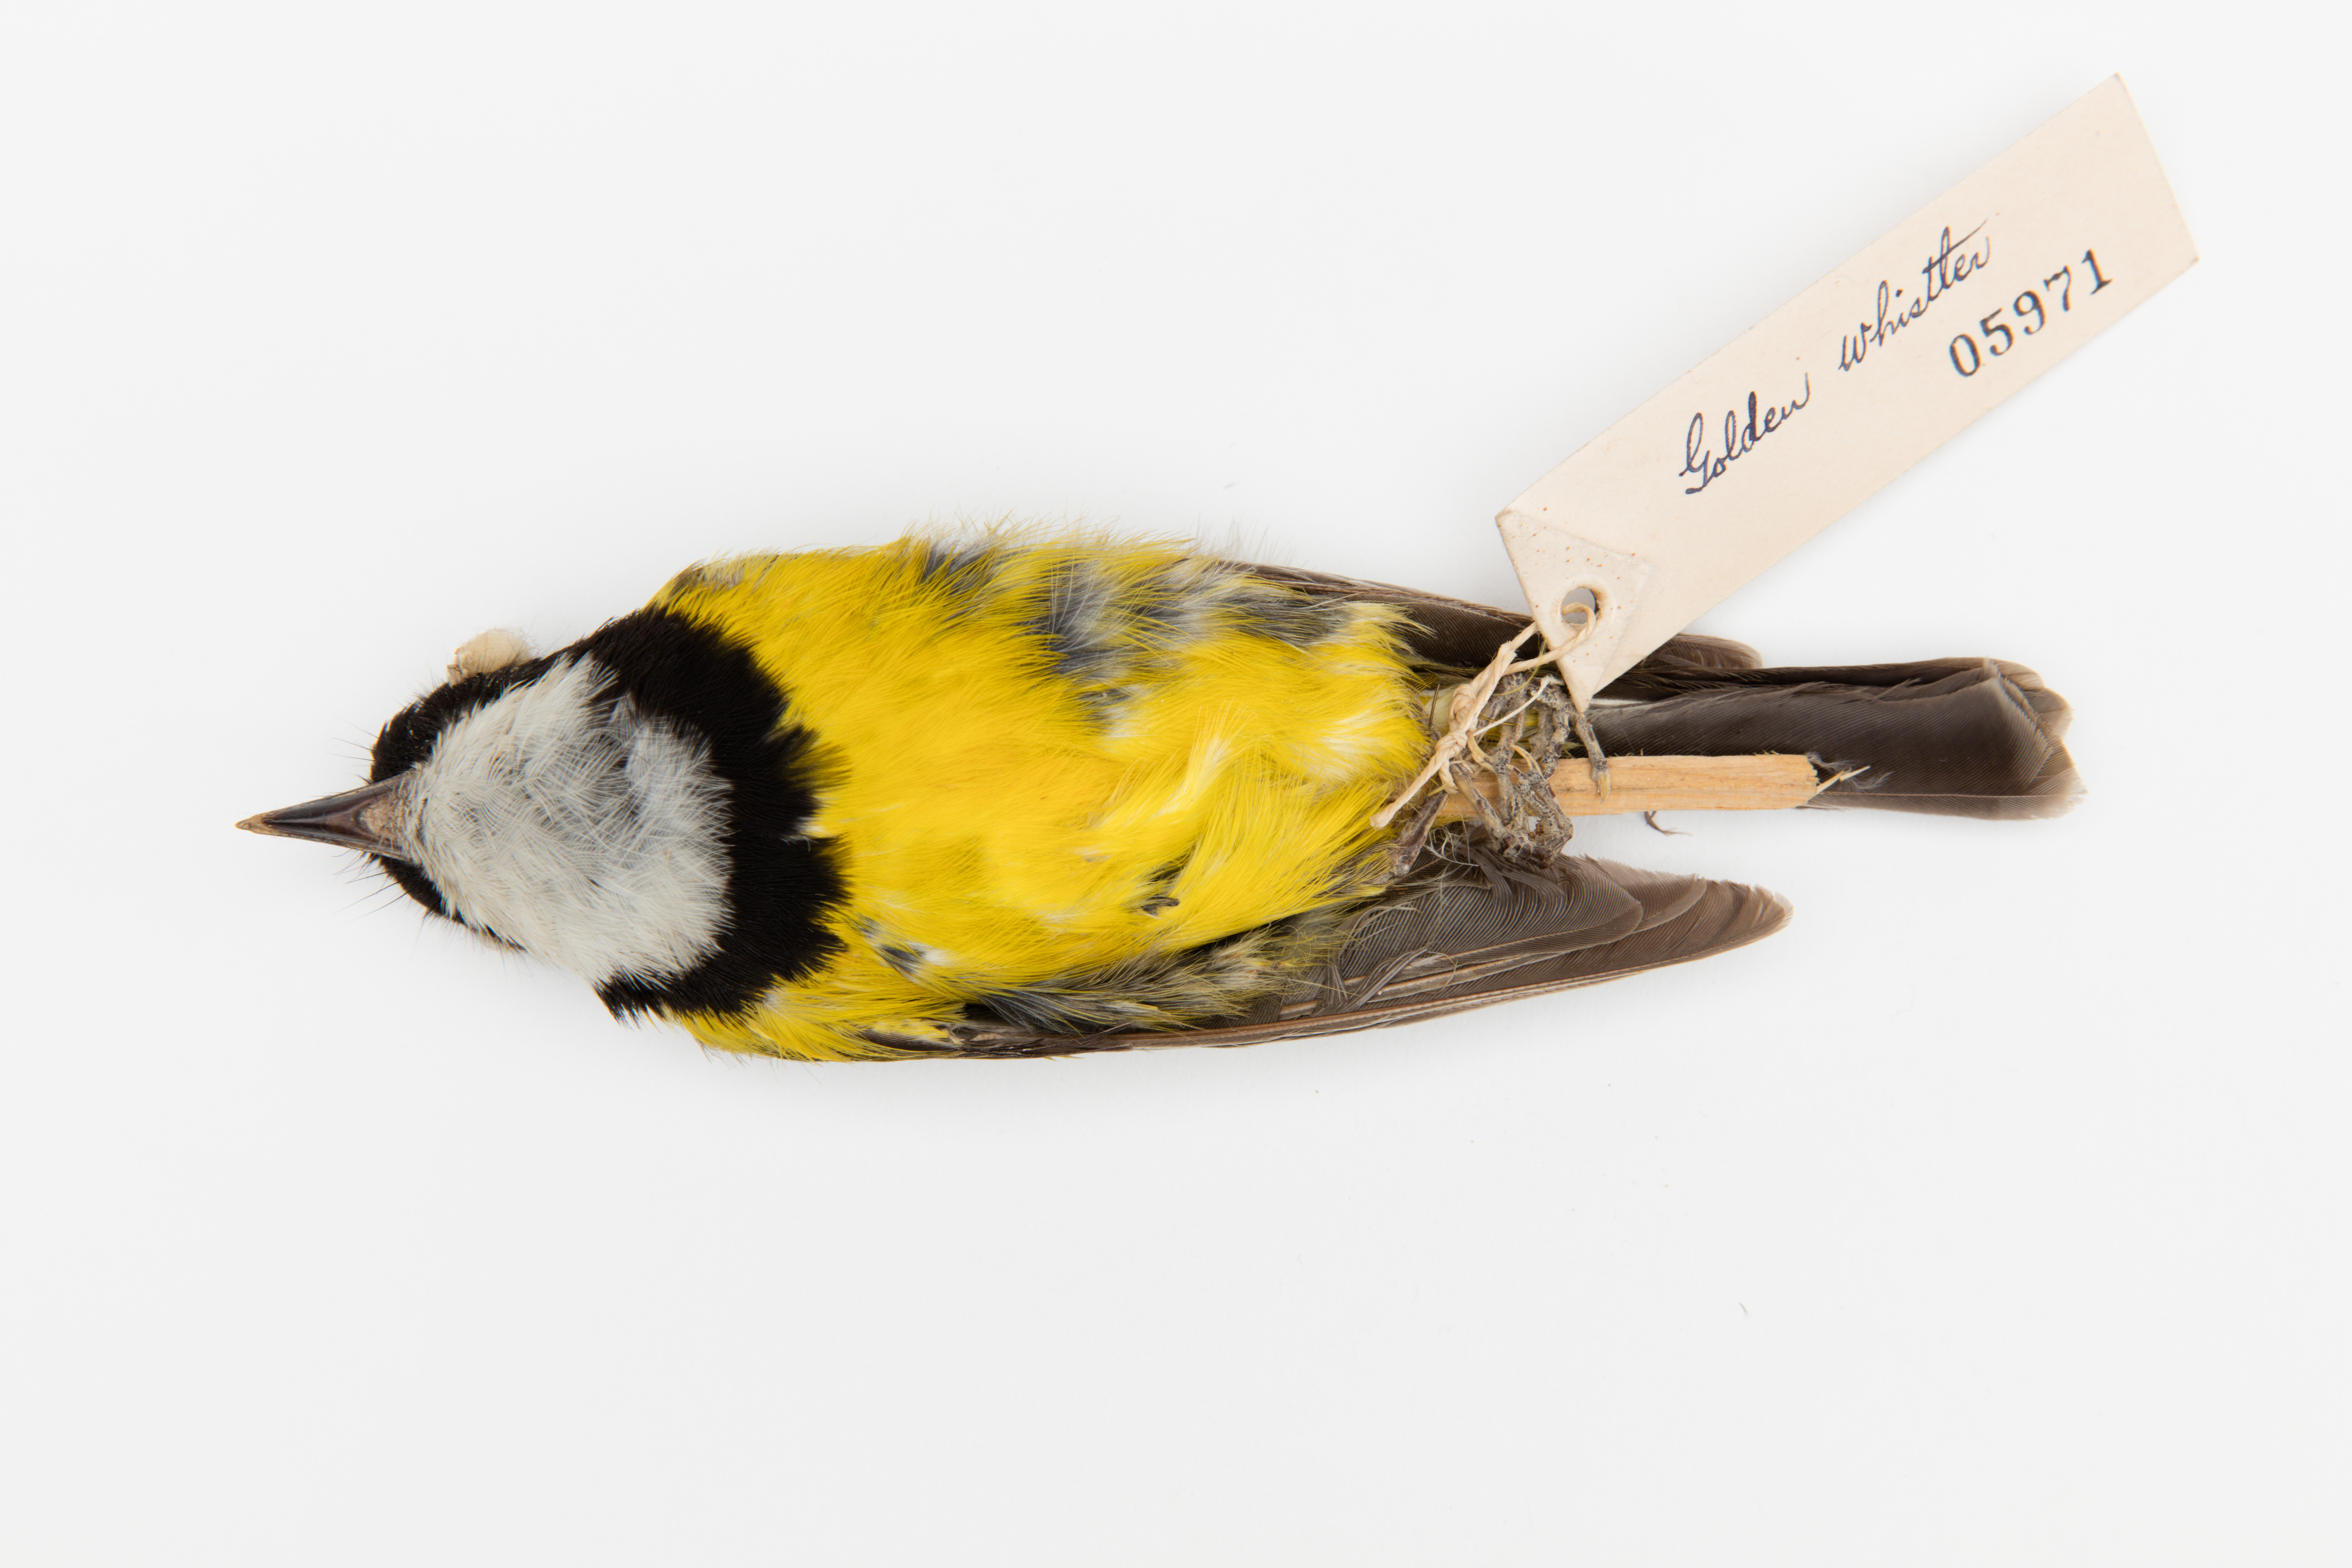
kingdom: Animalia
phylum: Chordata
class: Aves
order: Passeriformes
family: Pachycephalidae
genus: Pachycephala
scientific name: Pachycephala pectoralis
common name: Australian golden whistler
